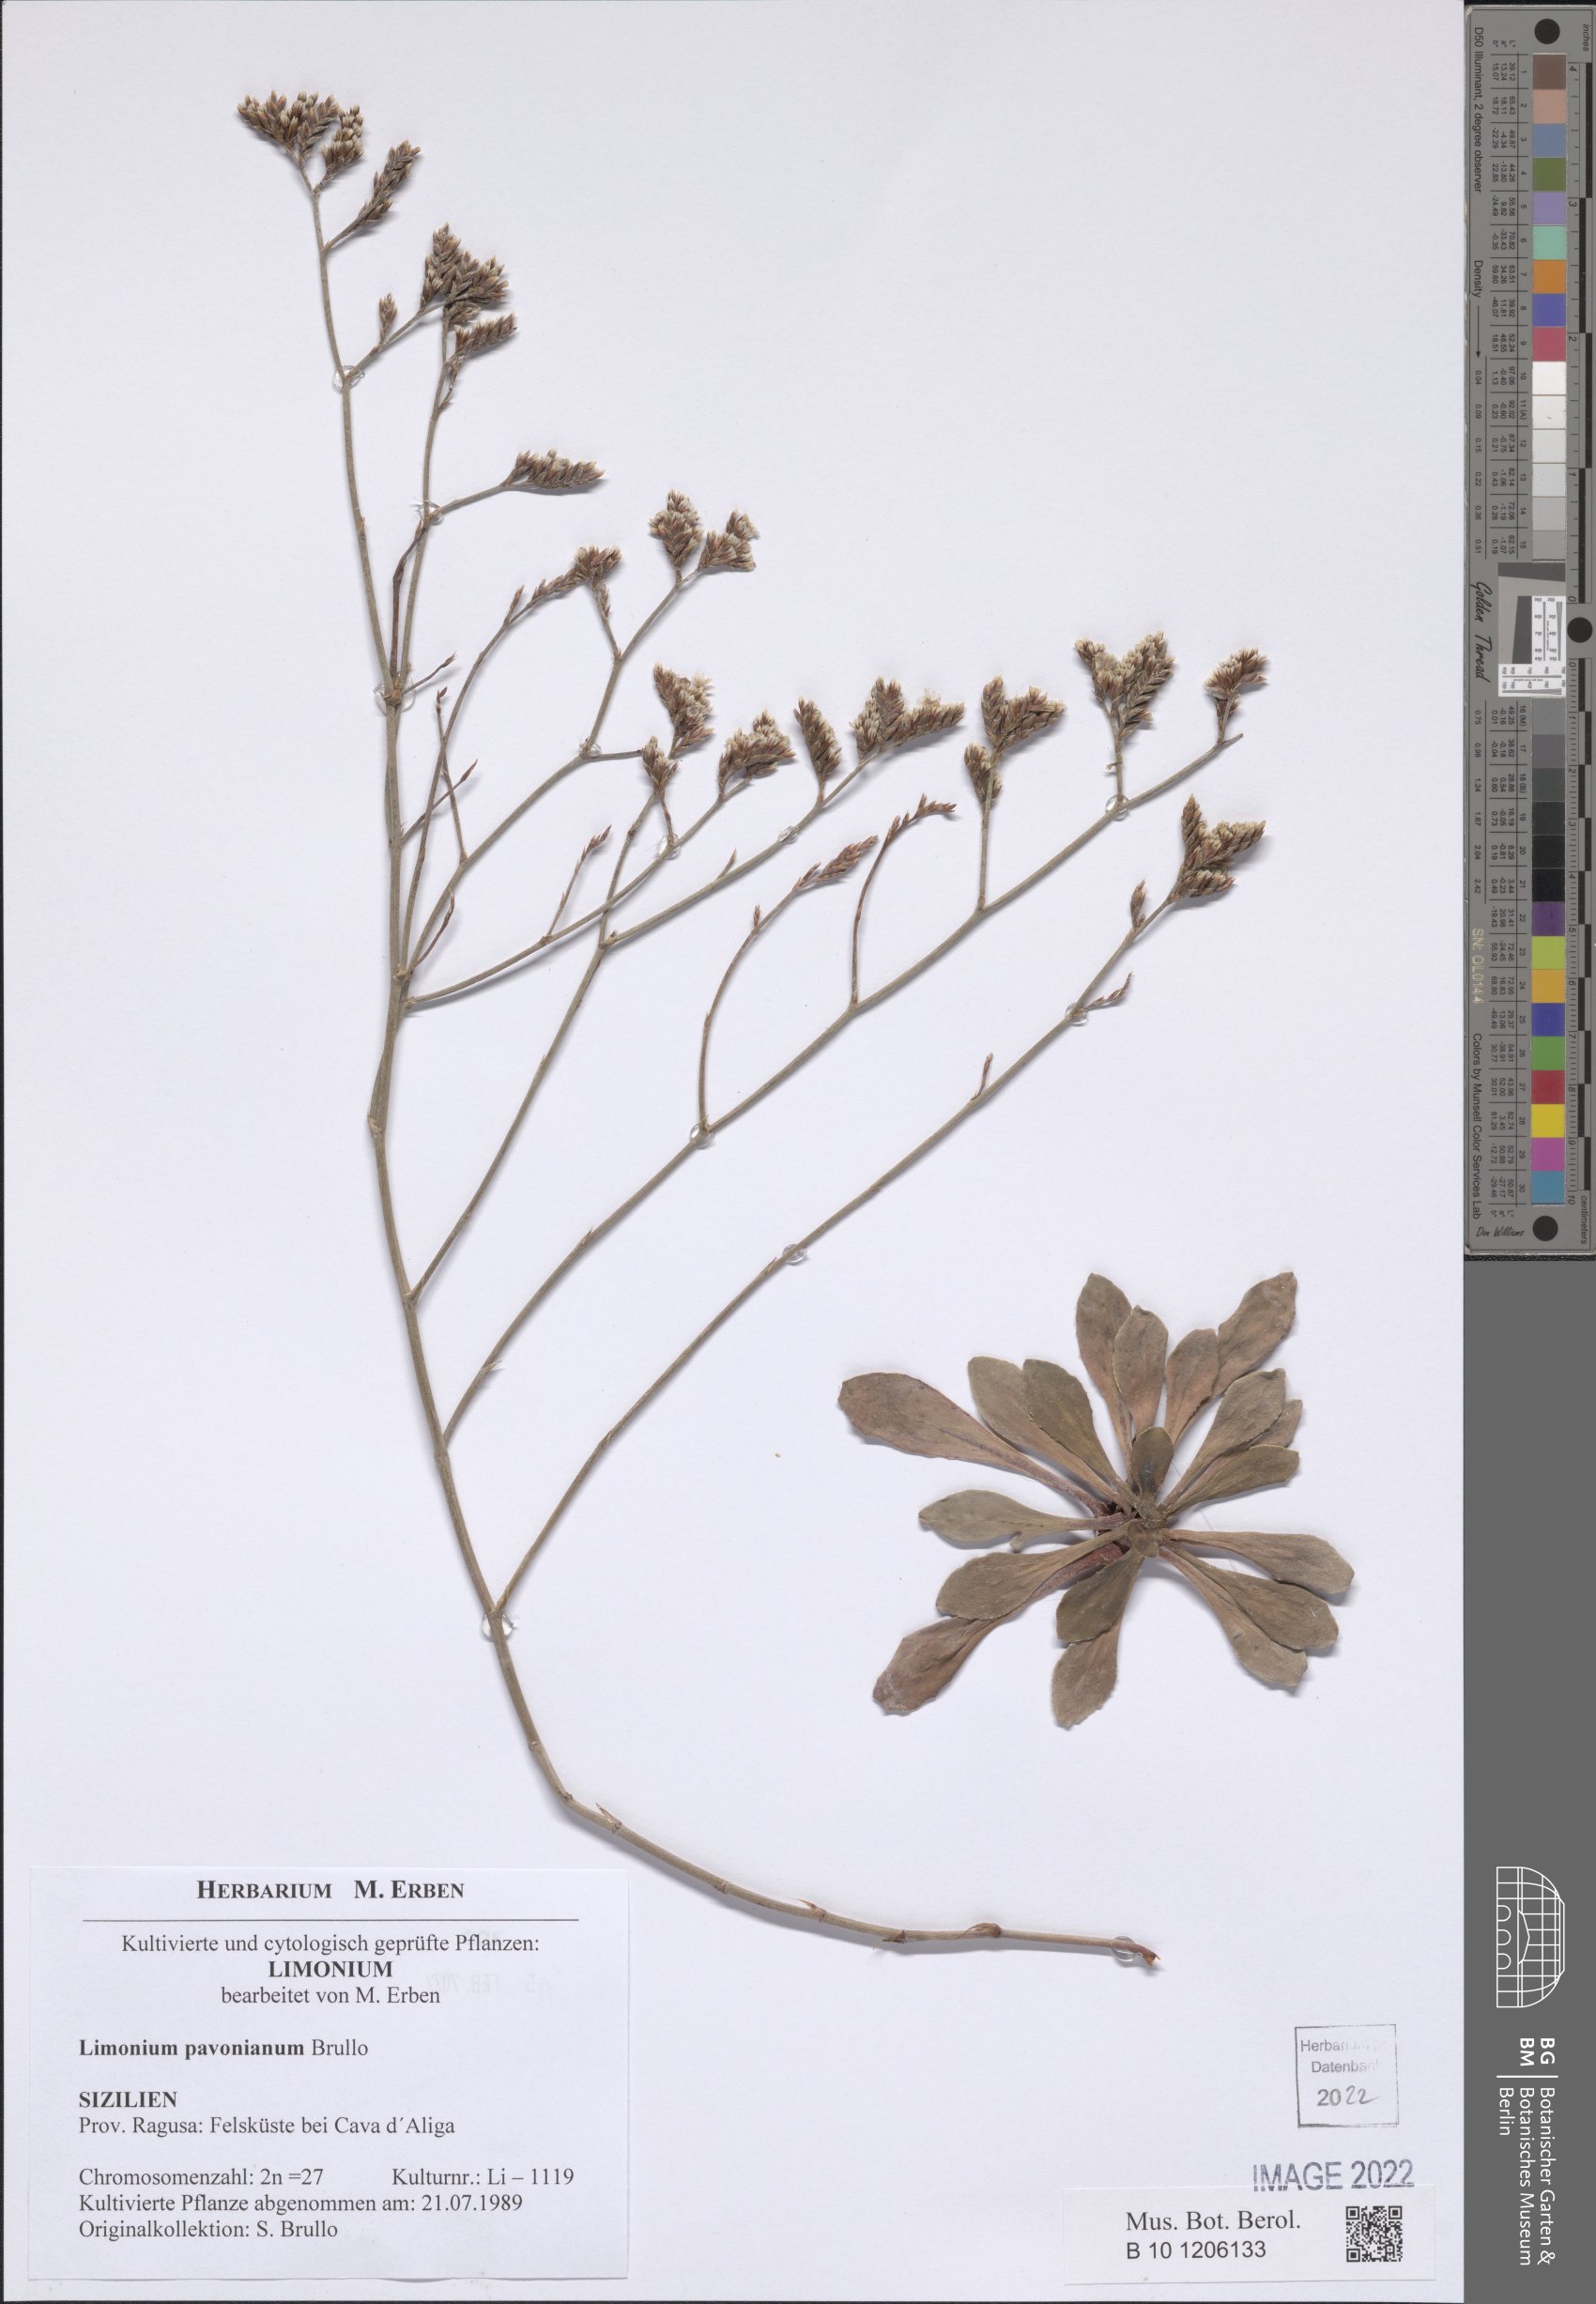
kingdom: Plantae
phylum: Tracheophyta
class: Magnoliopsida
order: Caryophyllales
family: Plumbaginaceae
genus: Limonium
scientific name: Limonium pavonianum
